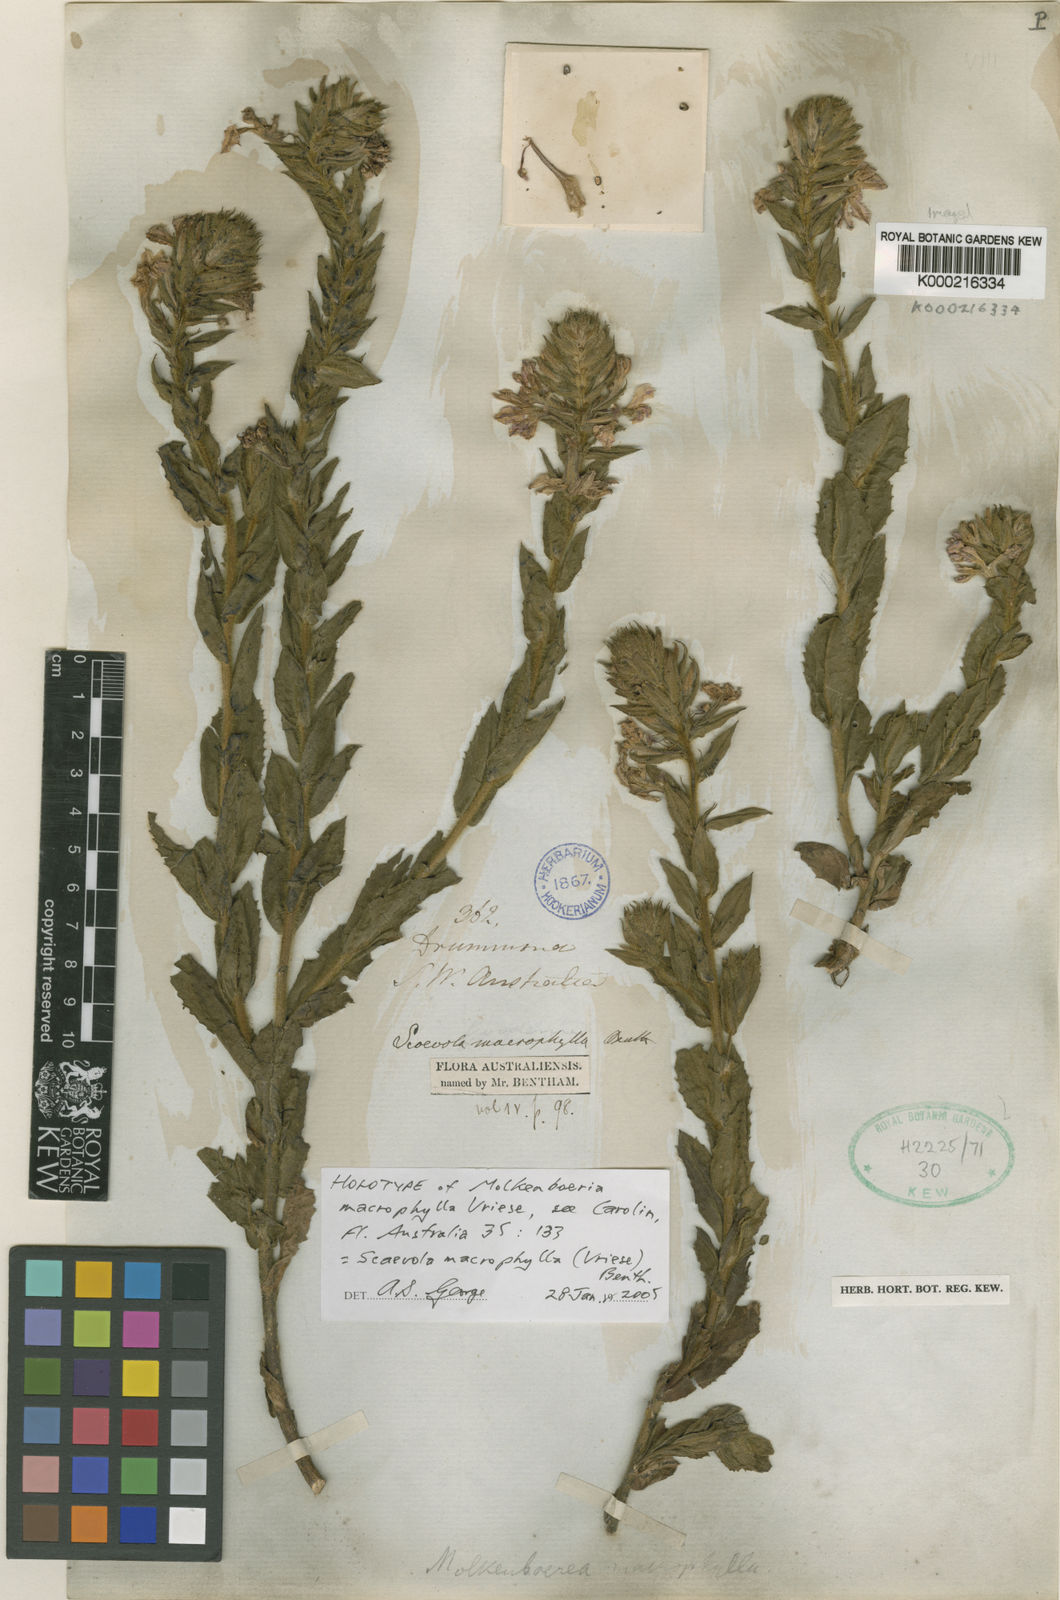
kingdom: Plantae
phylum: Tracheophyta
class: Magnoliopsida
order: Asterales
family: Goodeniaceae
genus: Scaevola
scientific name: Scaevola macrophylla
